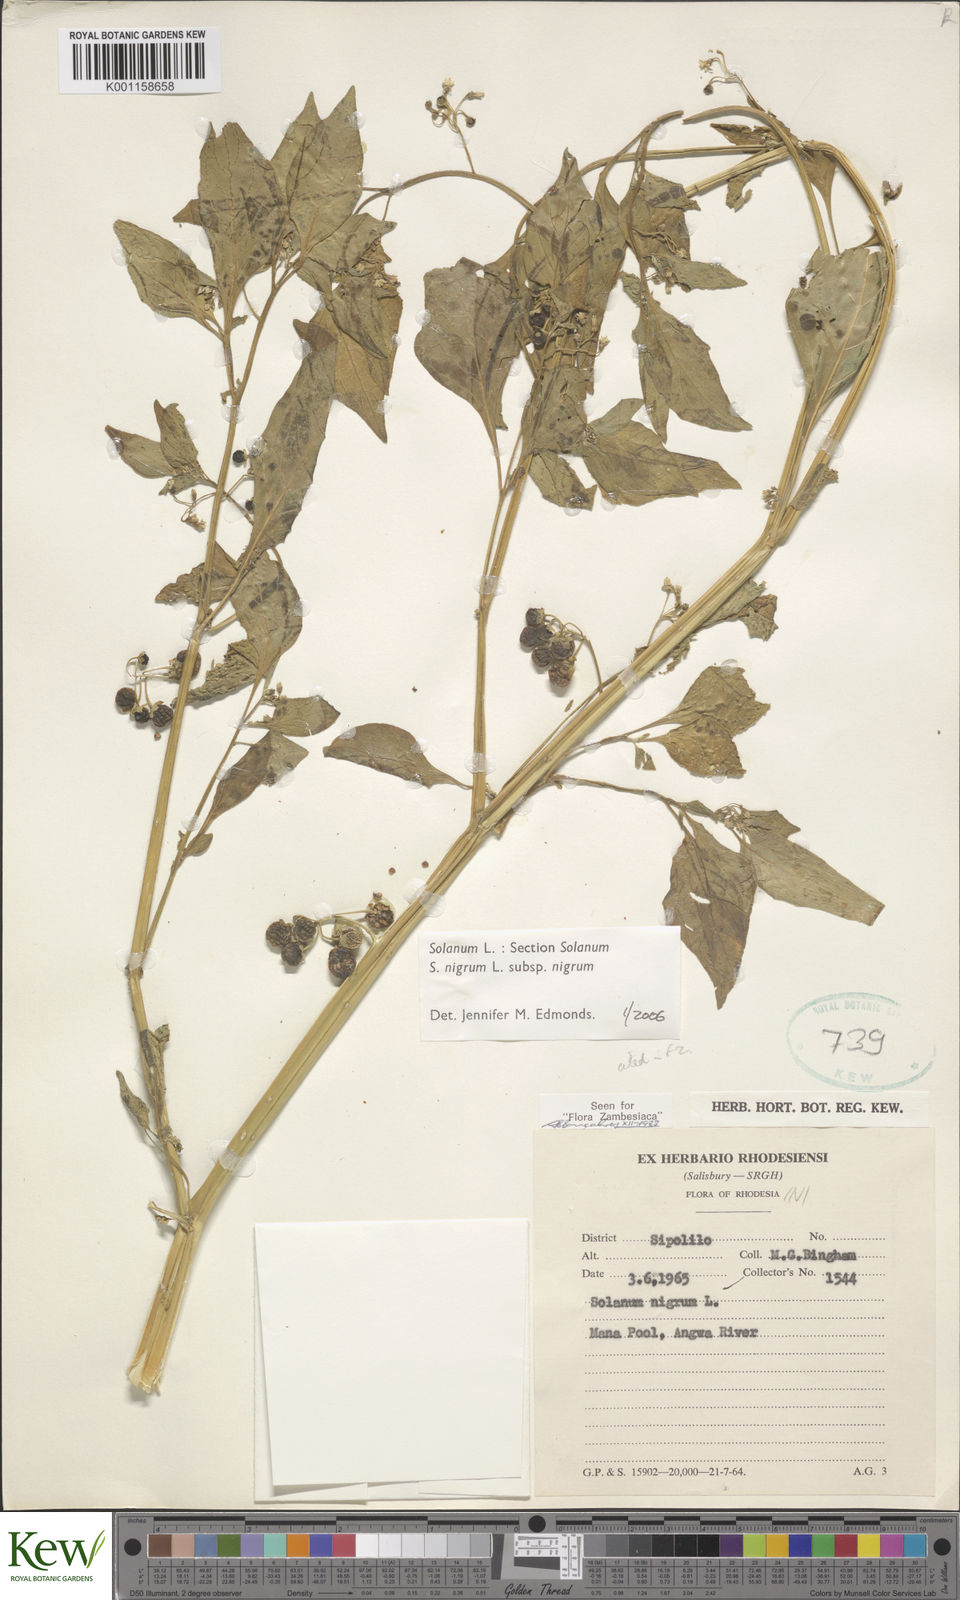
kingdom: Plantae
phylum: Tracheophyta
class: Magnoliopsida
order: Solanales
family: Solanaceae
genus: Solanum
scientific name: Solanum nigrum
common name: Black nightshade
